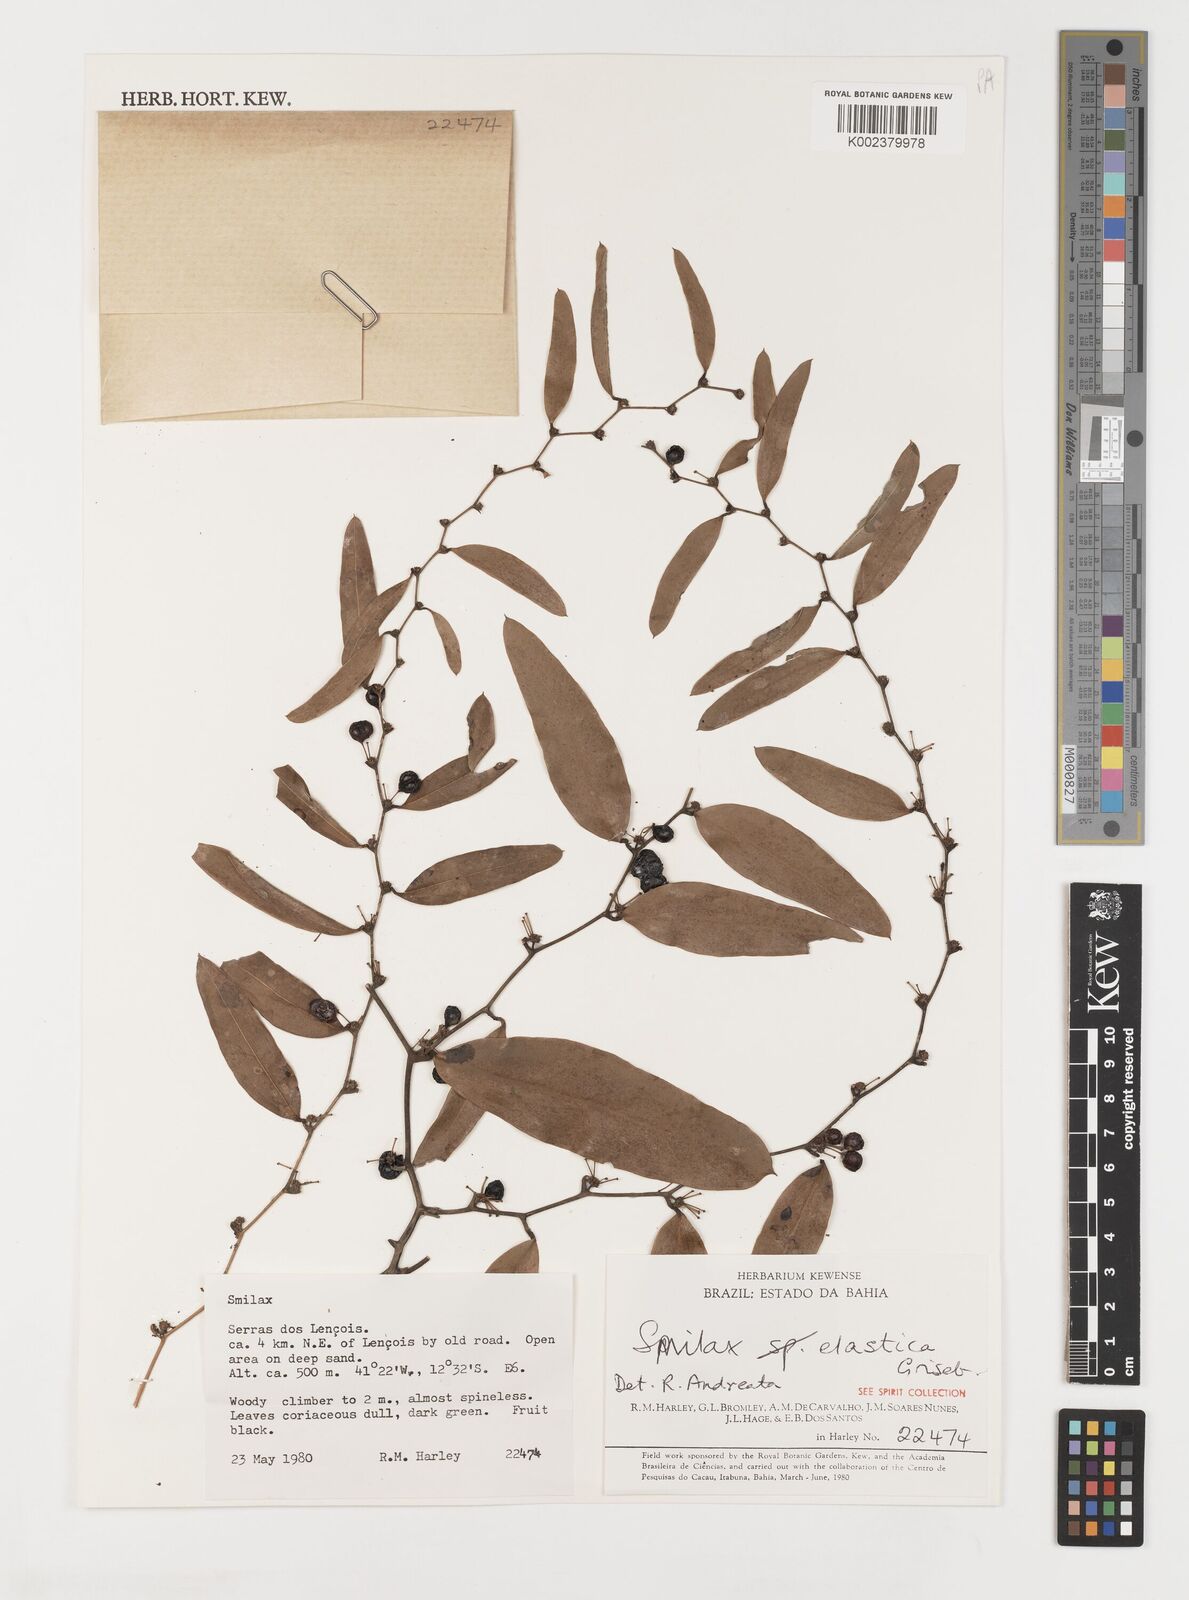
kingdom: Plantae
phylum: Tracheophyta
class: Liliopsida
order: Liliales
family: Smilacaceae
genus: Smilax
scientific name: Smilax elastica
